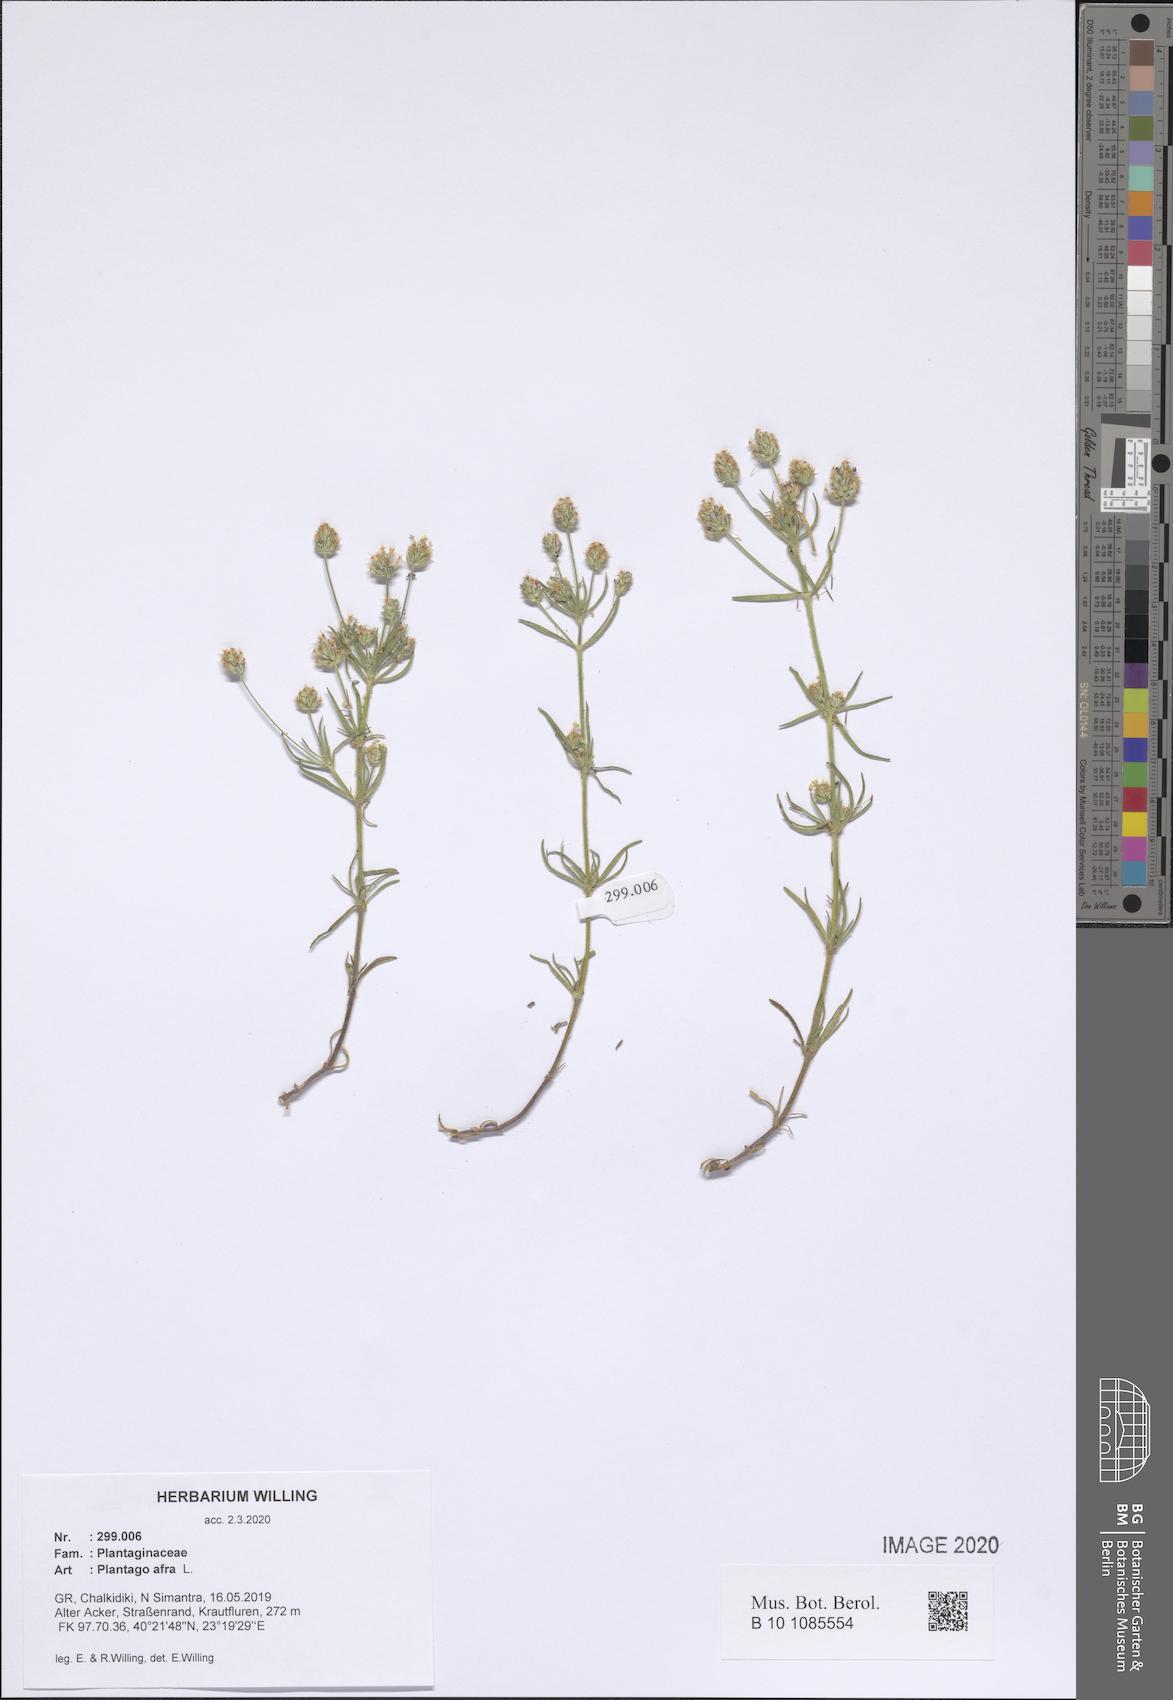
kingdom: Plantae
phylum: Tracheophyta
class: Magnoliopsida
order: Lamiales
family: Plantaginaceae
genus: Plantago
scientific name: Plantago afra
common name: Glandular plantain
